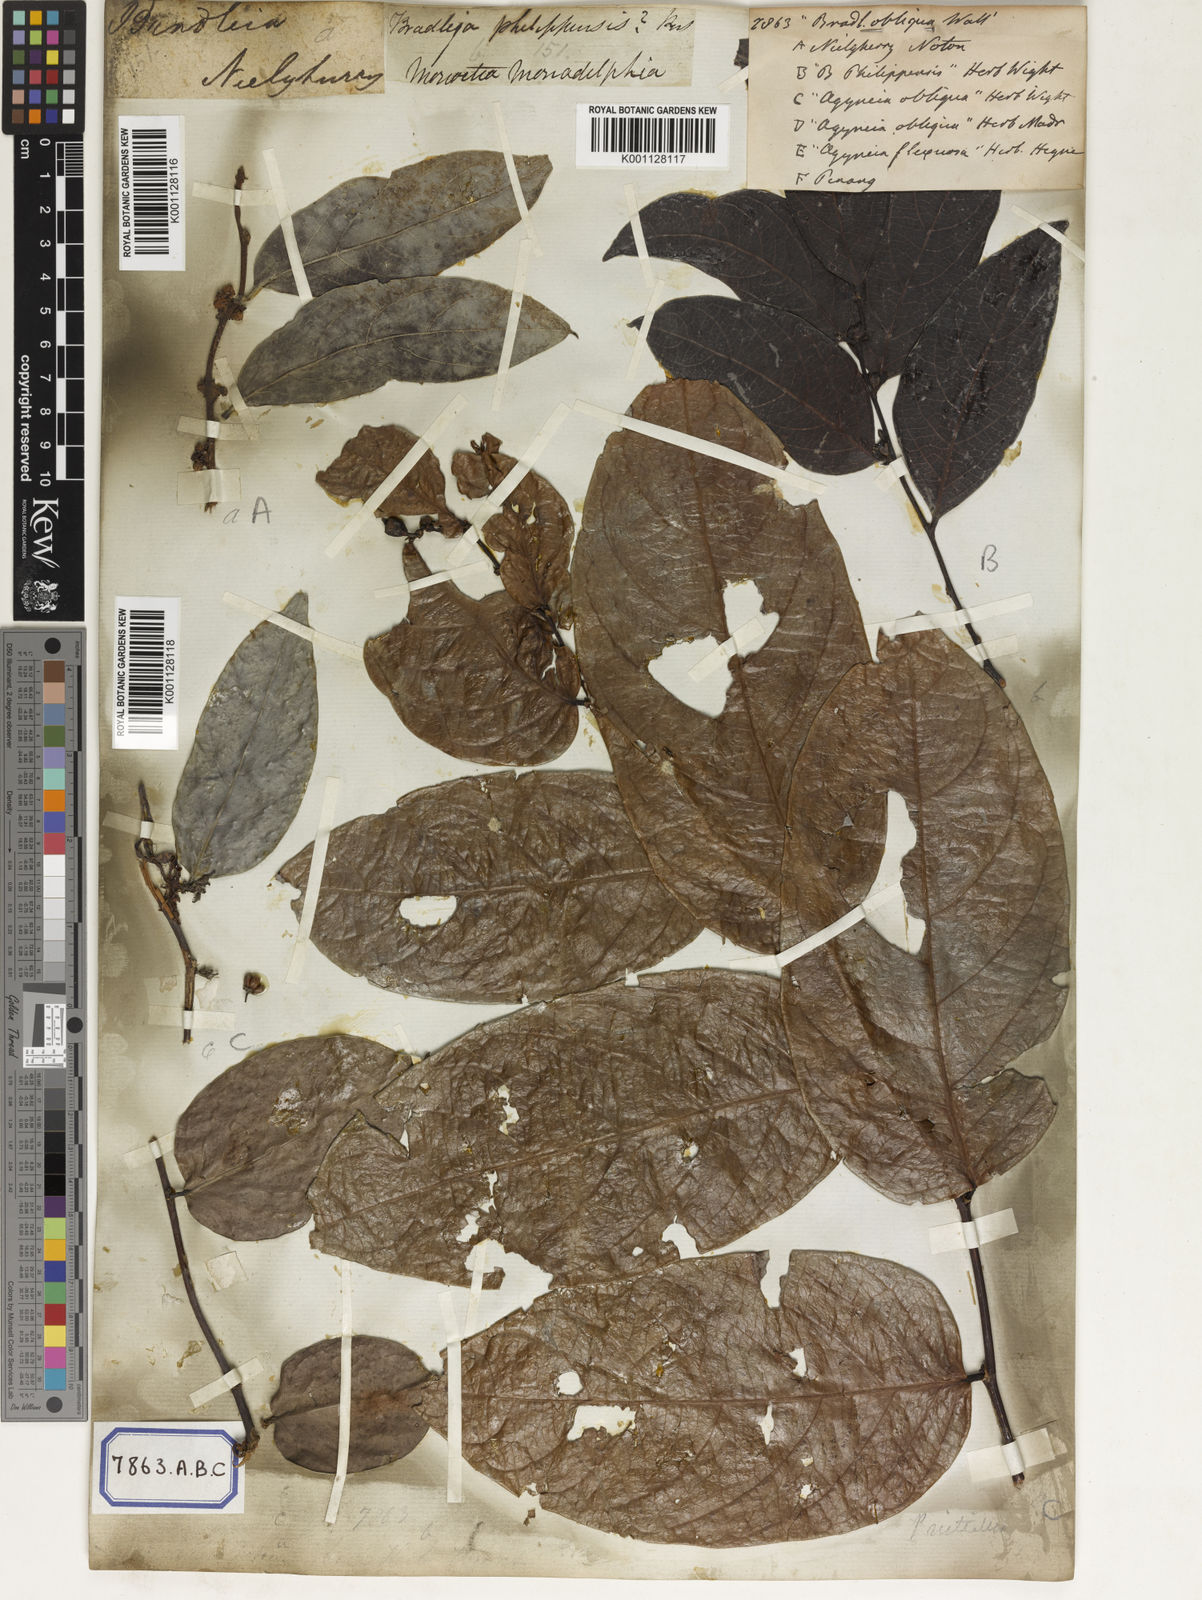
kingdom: Plantae
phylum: Tracheophyta
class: Magnoliopsida
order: Malpighiales
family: Euphorbiaceae
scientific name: Euphorbiaceae
